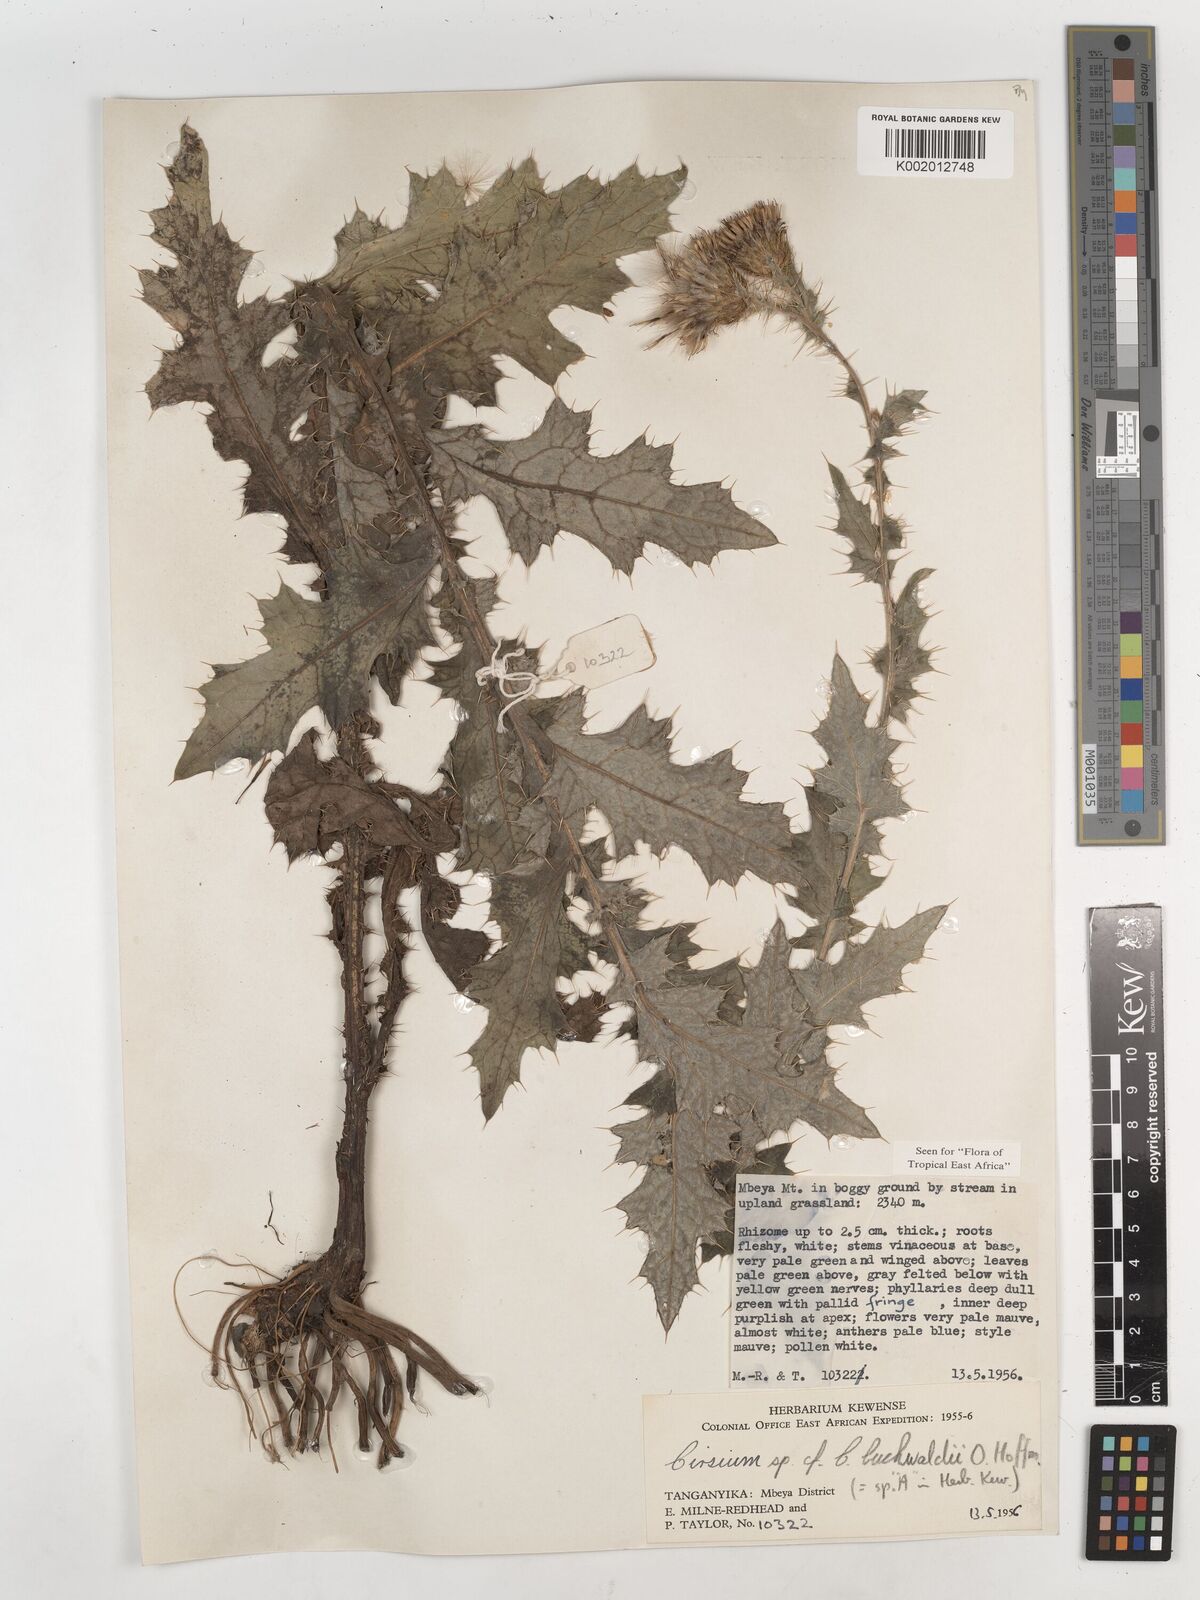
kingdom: Plantae
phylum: Tracheophyta
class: Magnoliopsida
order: Asterales
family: Asteraceae
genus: Cirsium
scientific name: Cirsium buchwaldii
